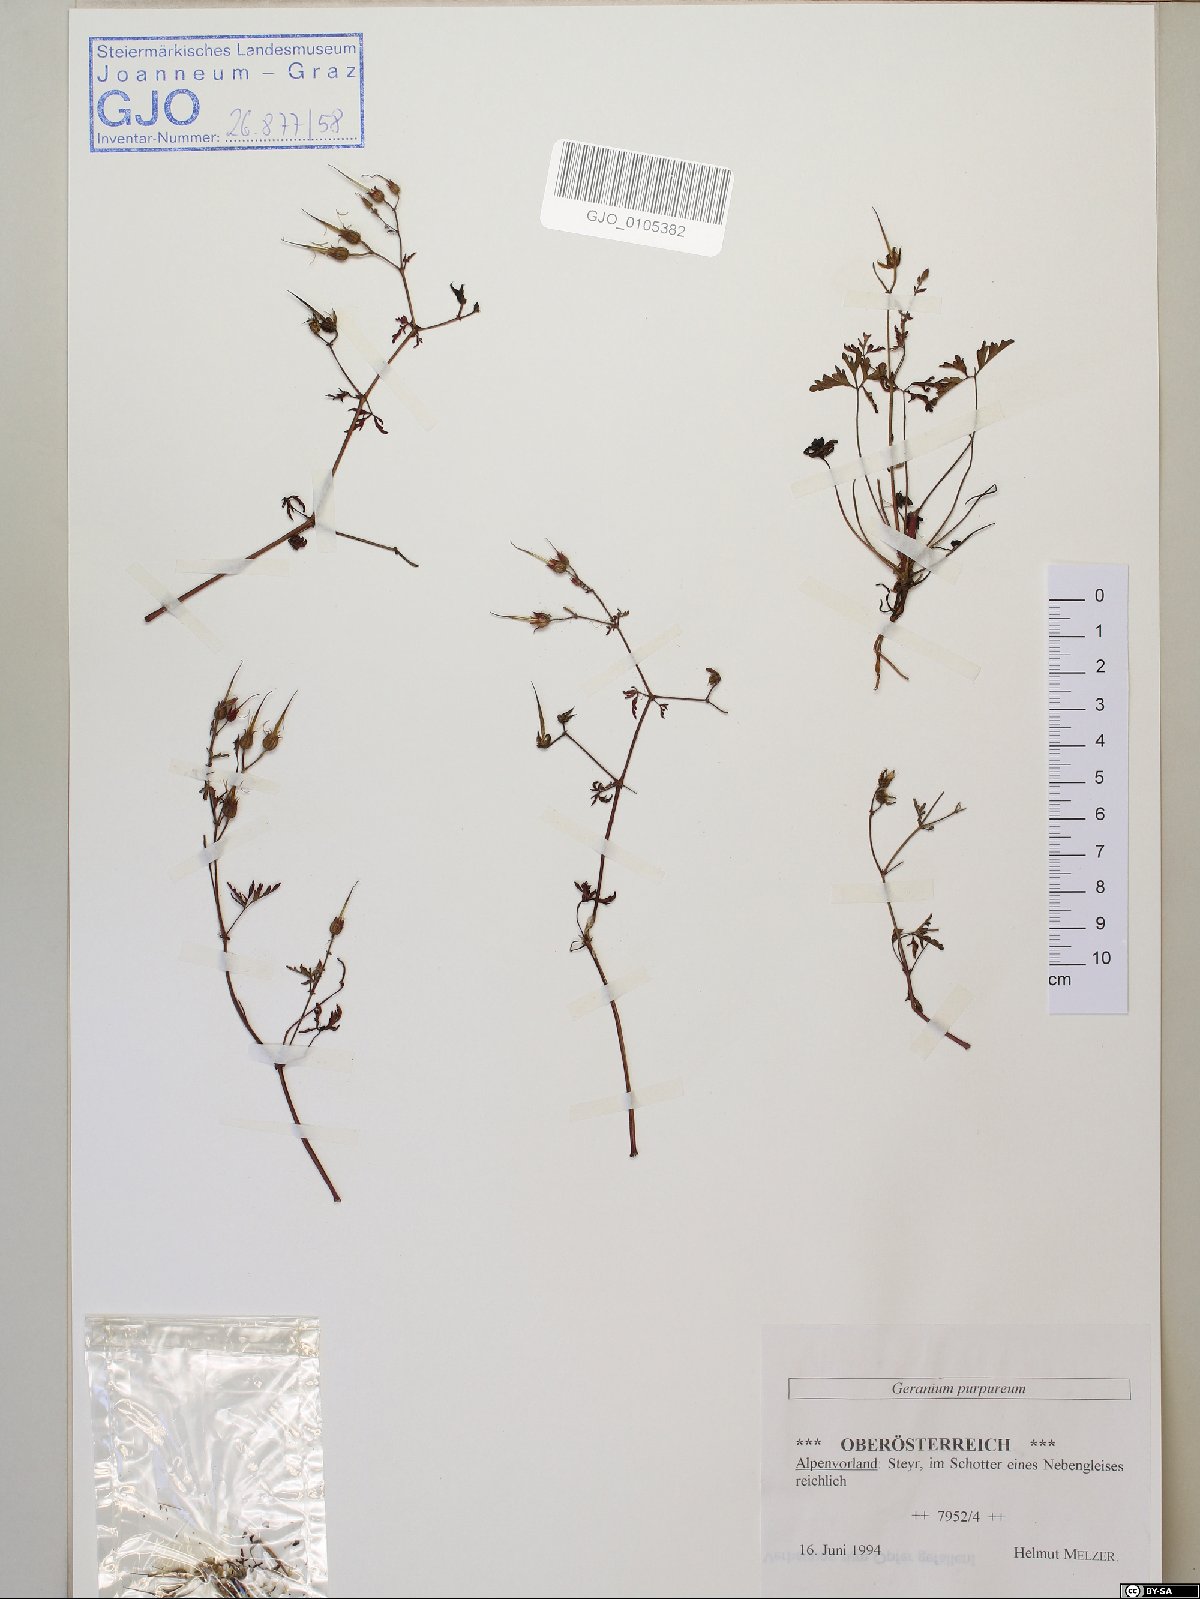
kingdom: Plantae
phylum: Tracheophyta
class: Magnoliopsida
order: Geraniales
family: Geraniaceae
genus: Geranium
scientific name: Geranium purpureum
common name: Little-robin
